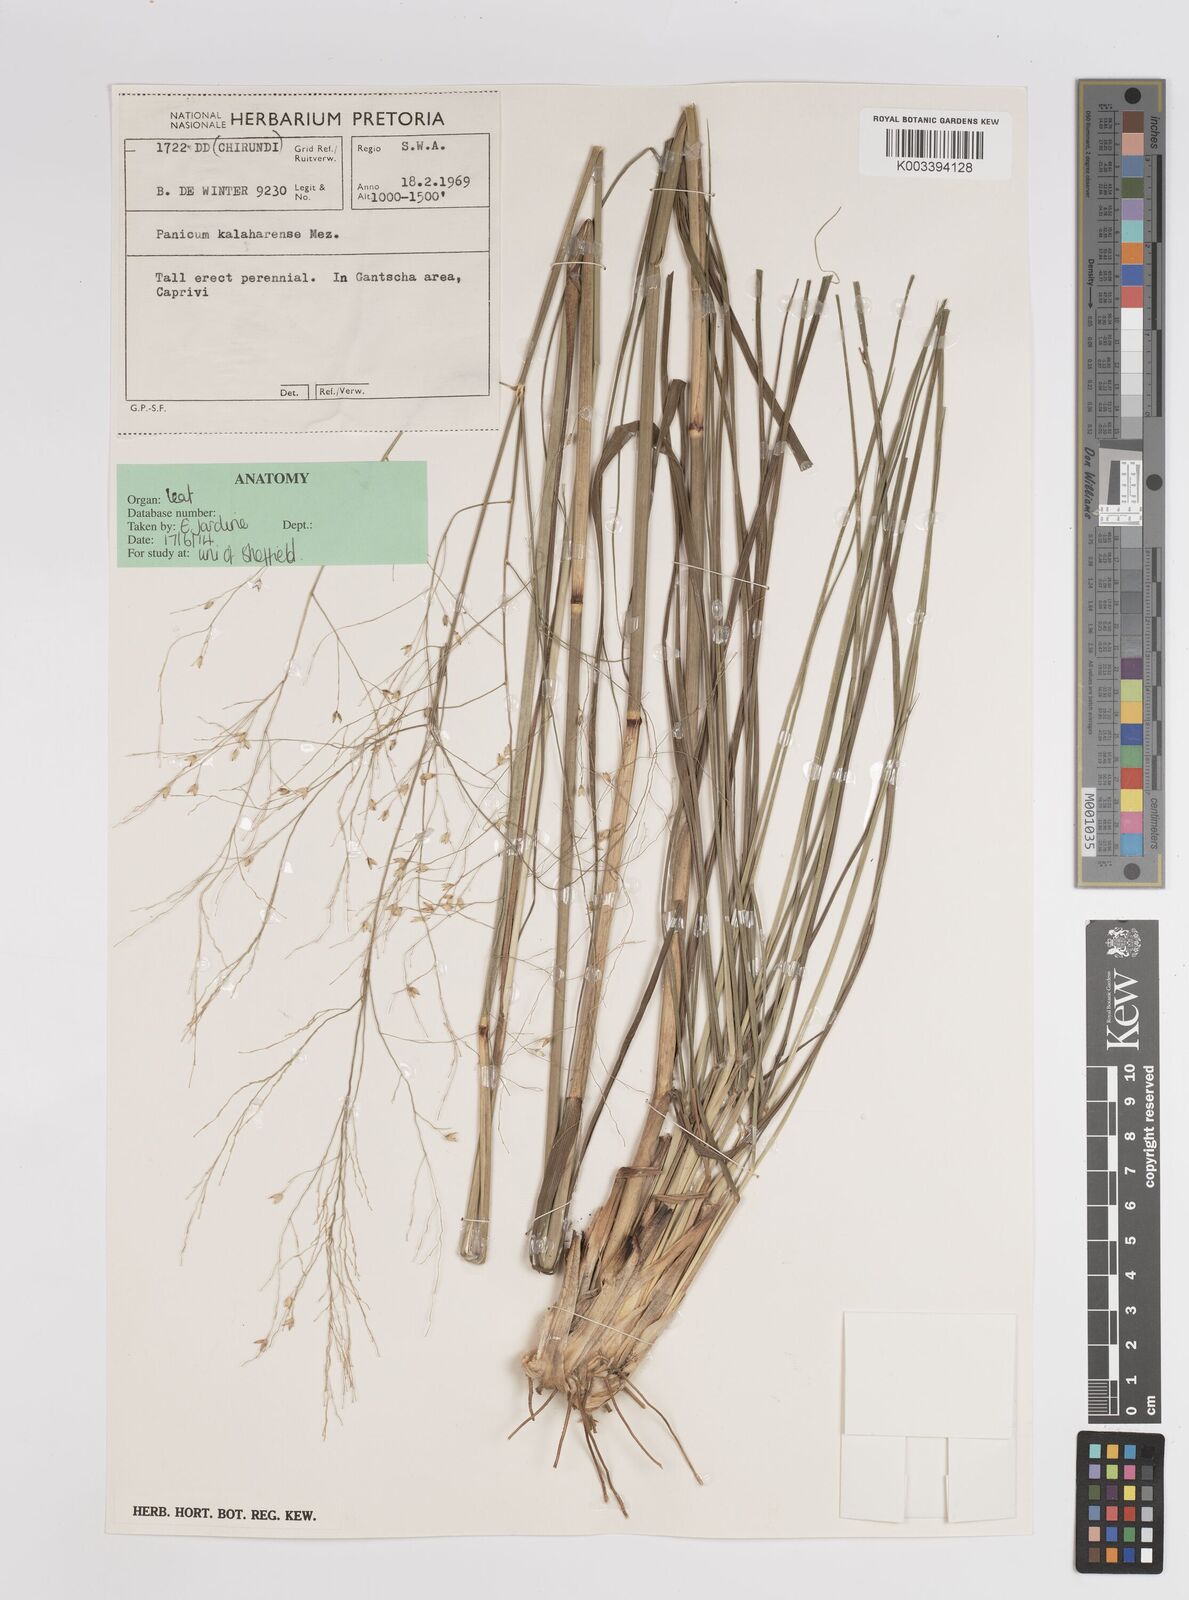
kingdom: Plantae
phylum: Tracheophyta
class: Liliopsida
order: Poales
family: Poaceae
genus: Panicum
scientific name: Panicum kalaharense
